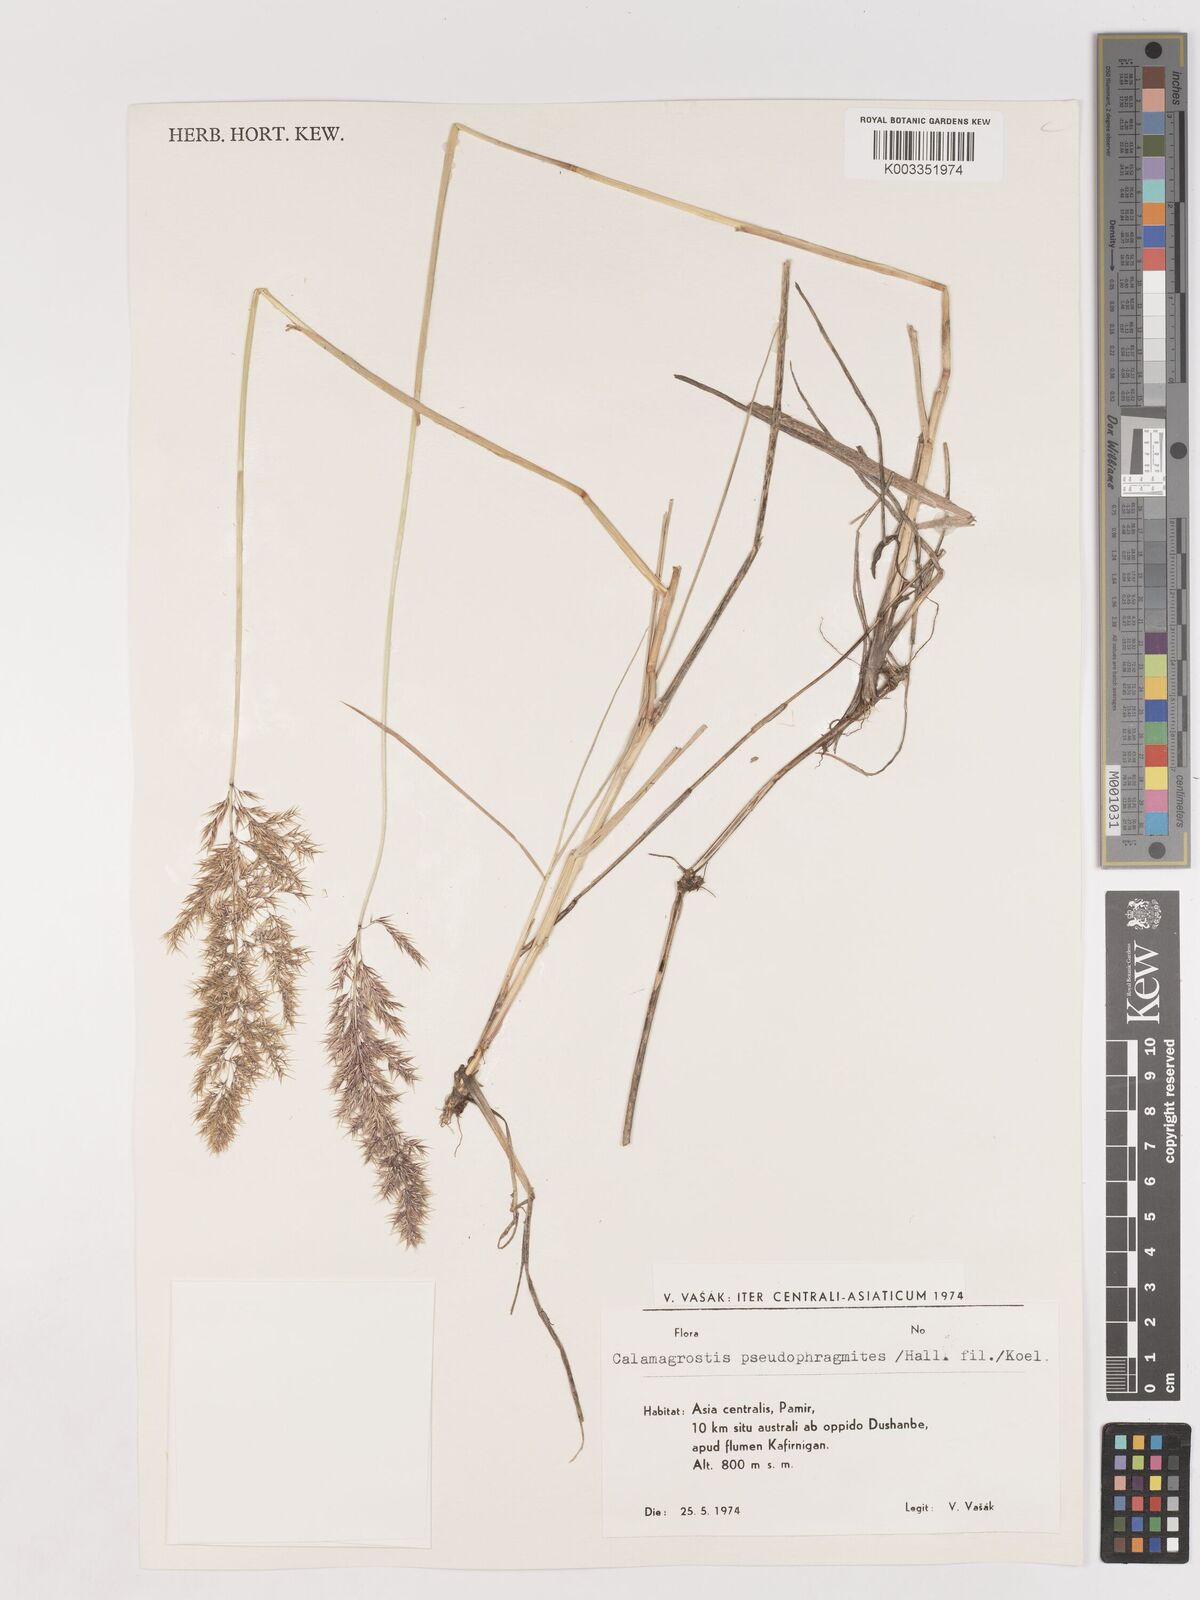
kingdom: Plantae
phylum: Tracheophyta
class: Liliopsida
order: Poales
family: Poaceae
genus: Calamagrostis
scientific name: Calamagrostis pseudophragmites
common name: Coastal small-reed
